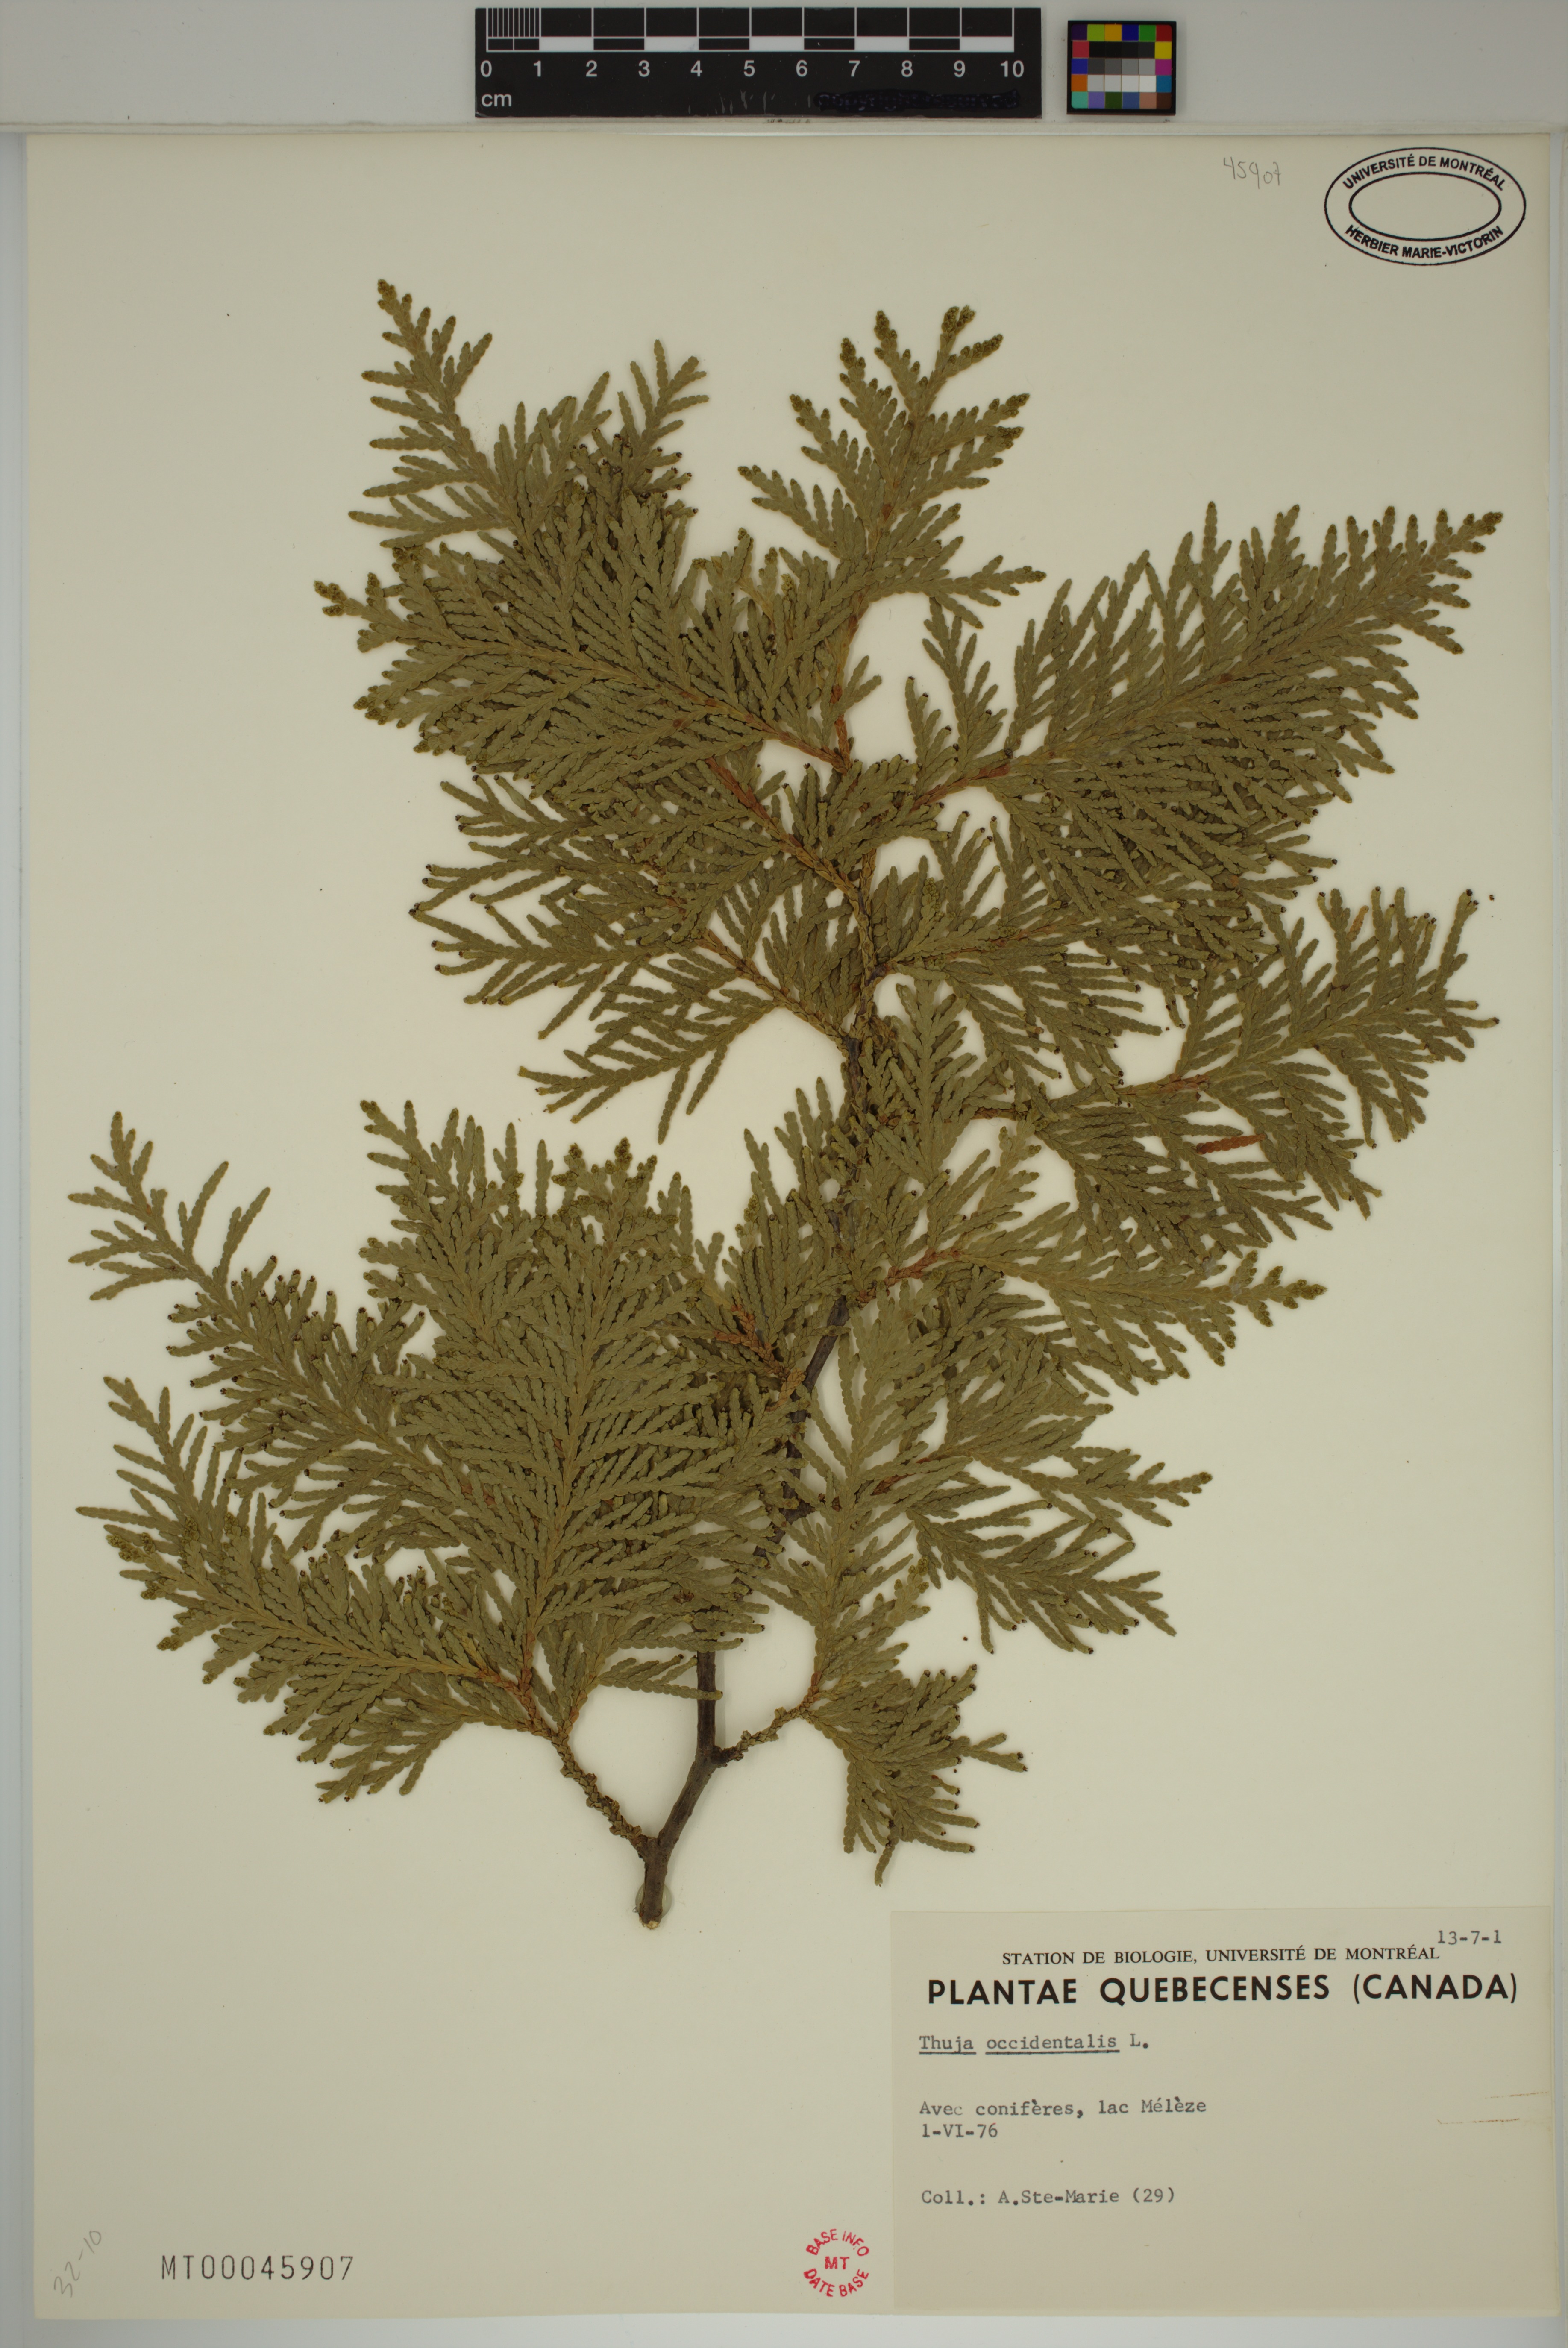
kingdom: Plantae
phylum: Tracheophyta
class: Pinopsida
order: Pinales
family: Cupressaceae
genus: Thuja
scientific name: Thuja occidentalis
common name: Northern white-cedar
